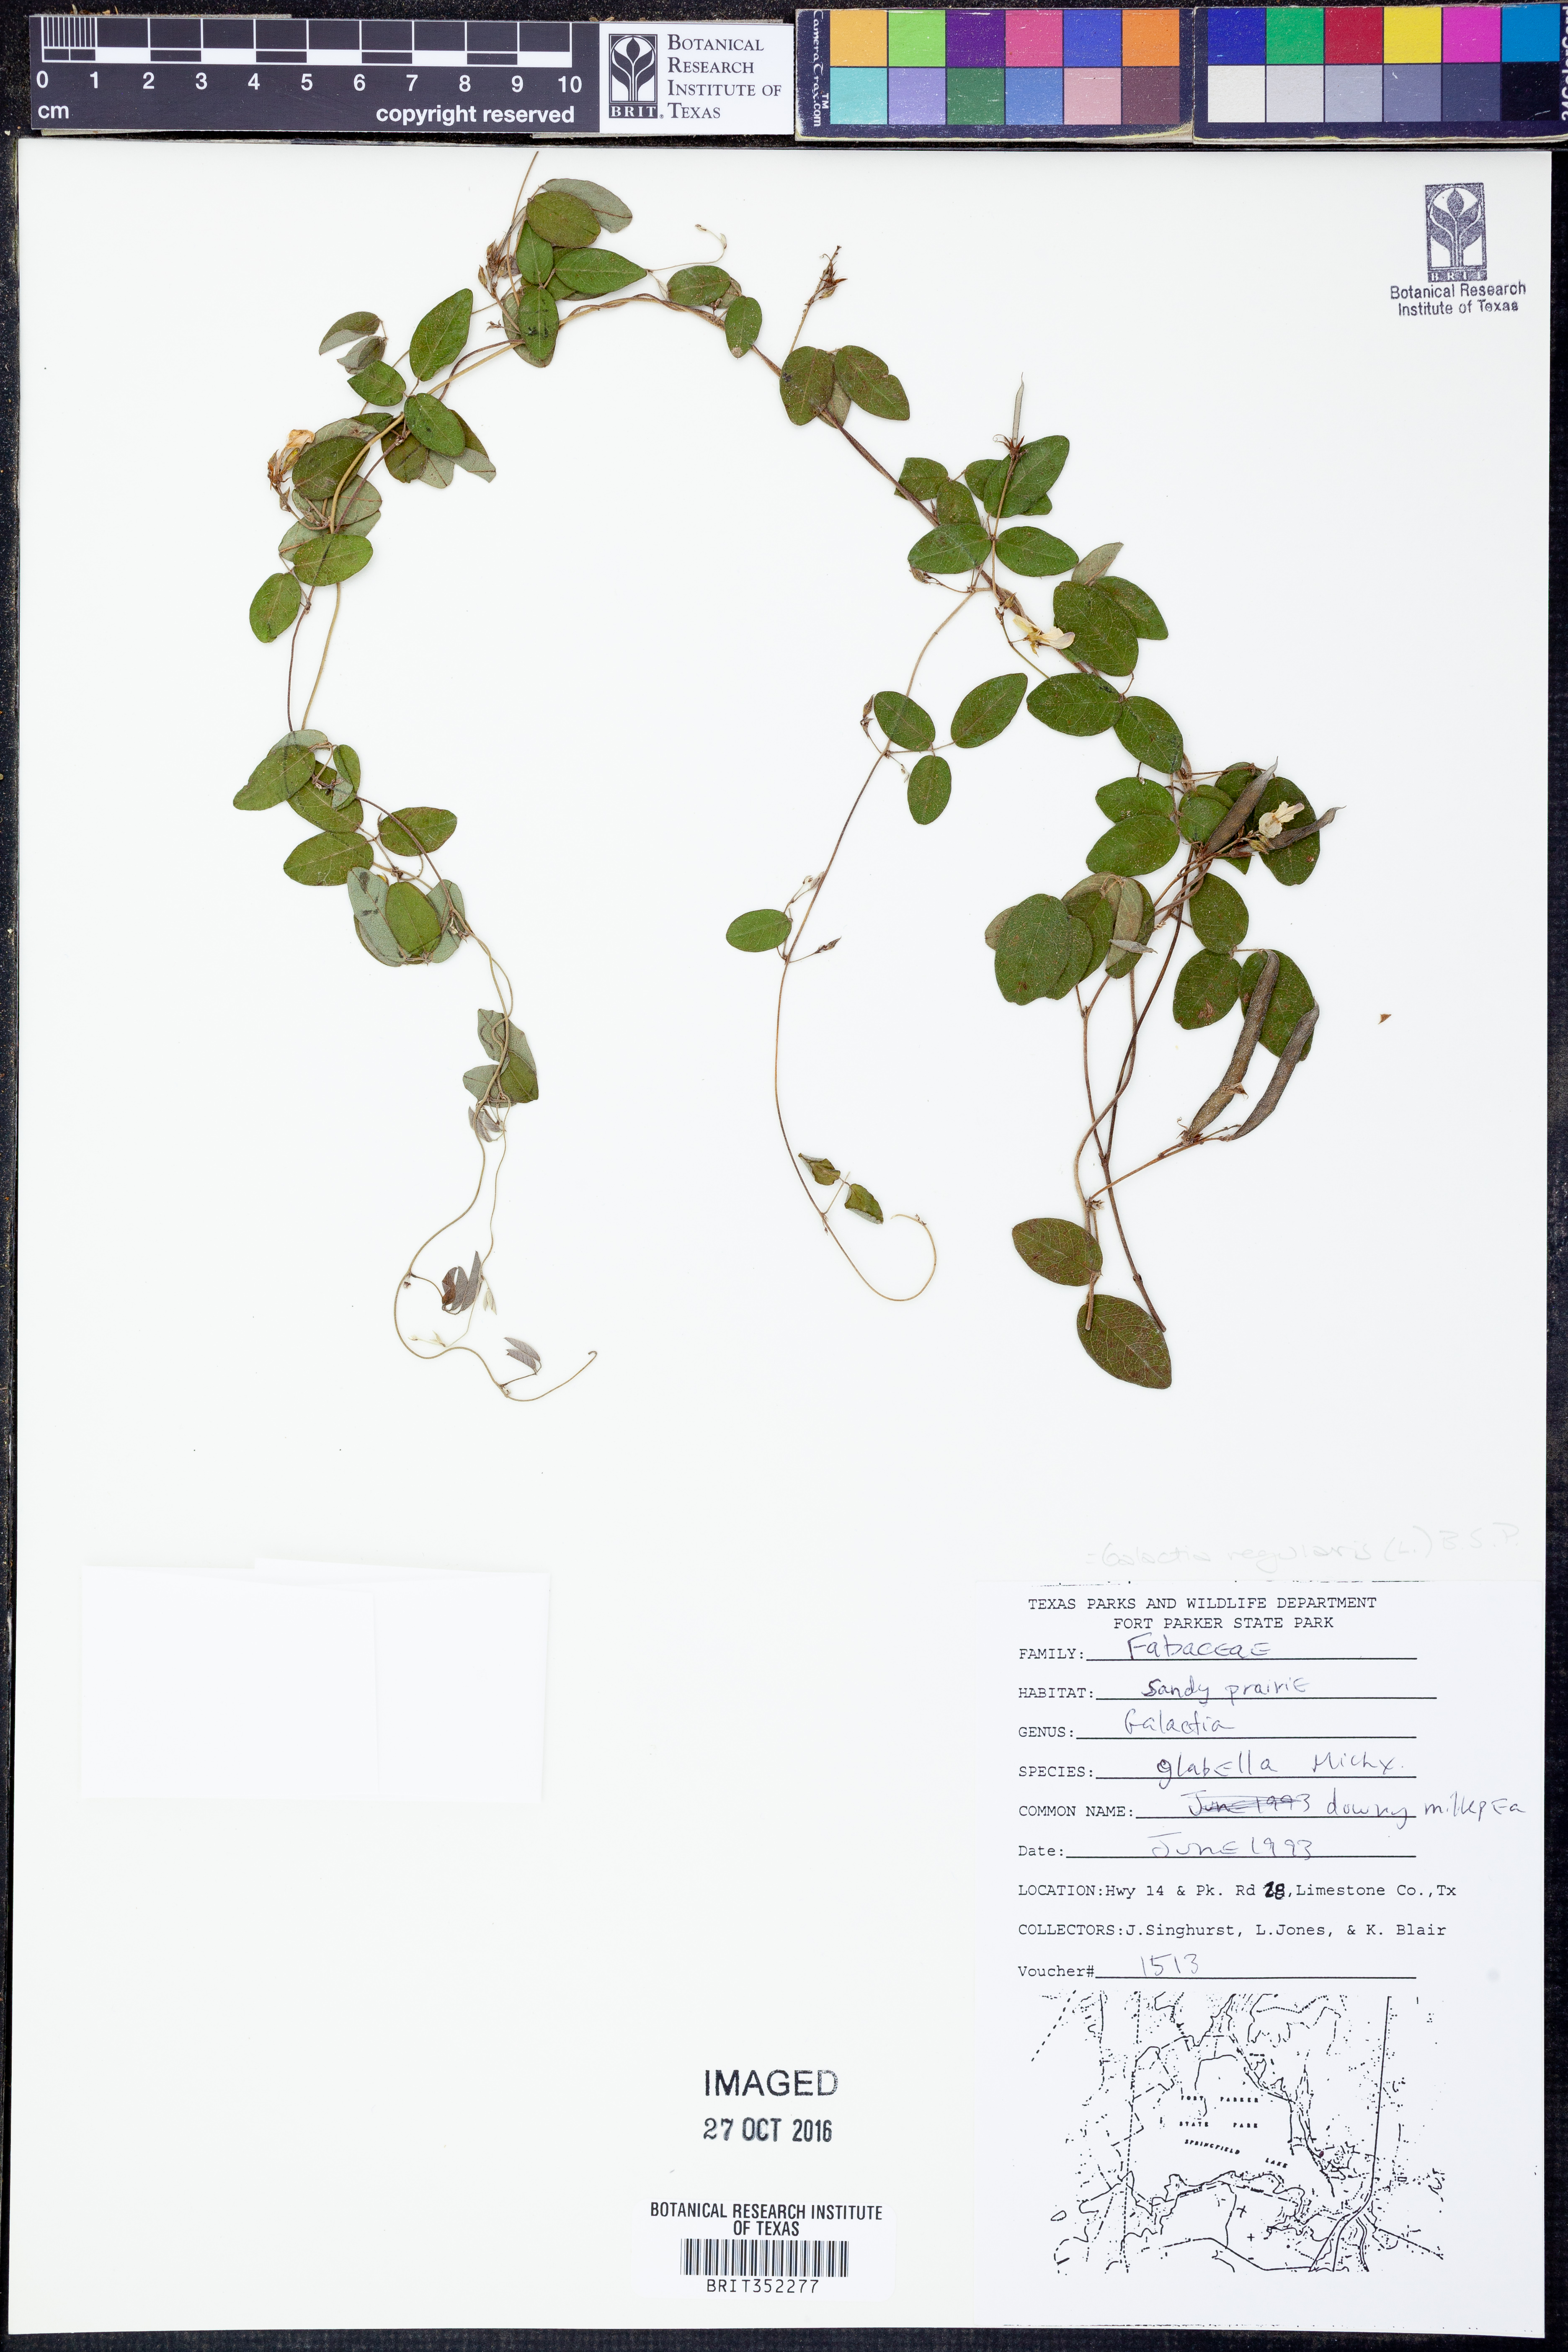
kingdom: Plantae
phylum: Tracheophyta
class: Magnoliopsida
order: Fabales
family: Fabaceae
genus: Galactia
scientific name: Galactia regularis
